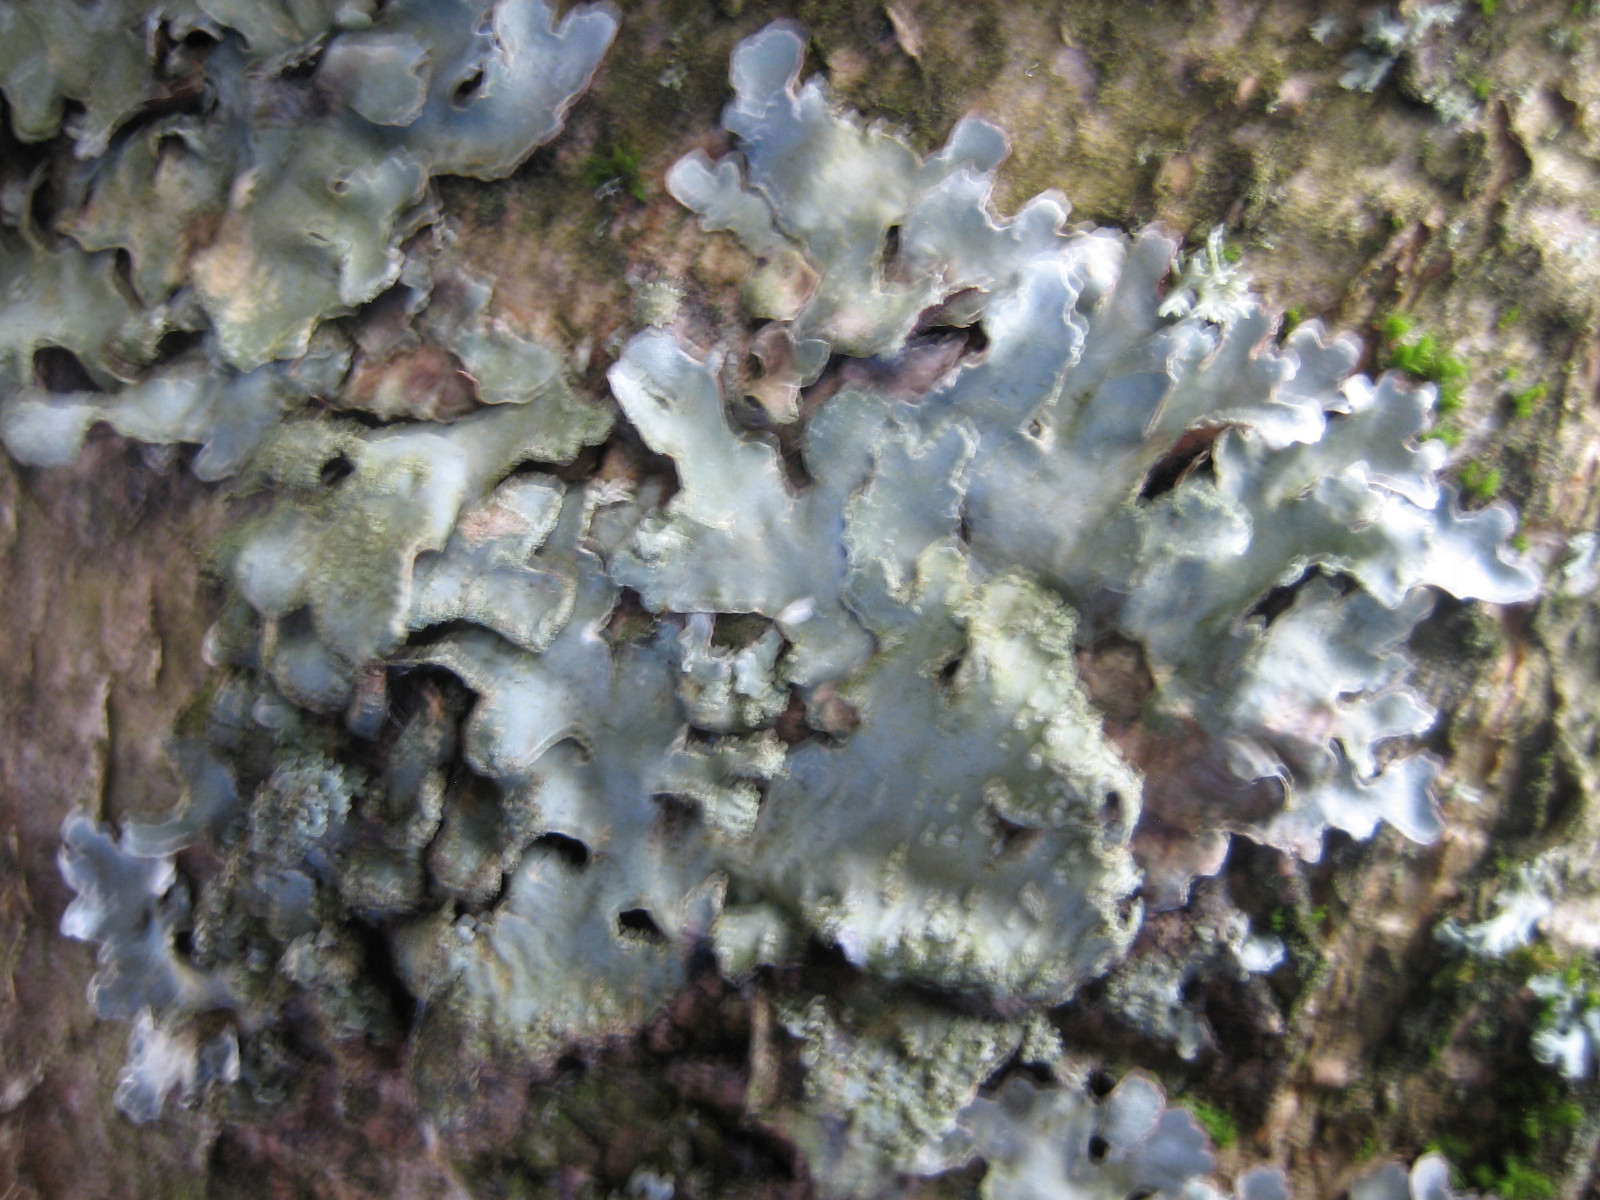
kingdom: Fungi
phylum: Ascomycota
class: Lecanoromycetes
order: Lecanorales
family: Parmeliaceae
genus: Parmelia
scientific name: Parmelia sulcata
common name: rynket skållav
